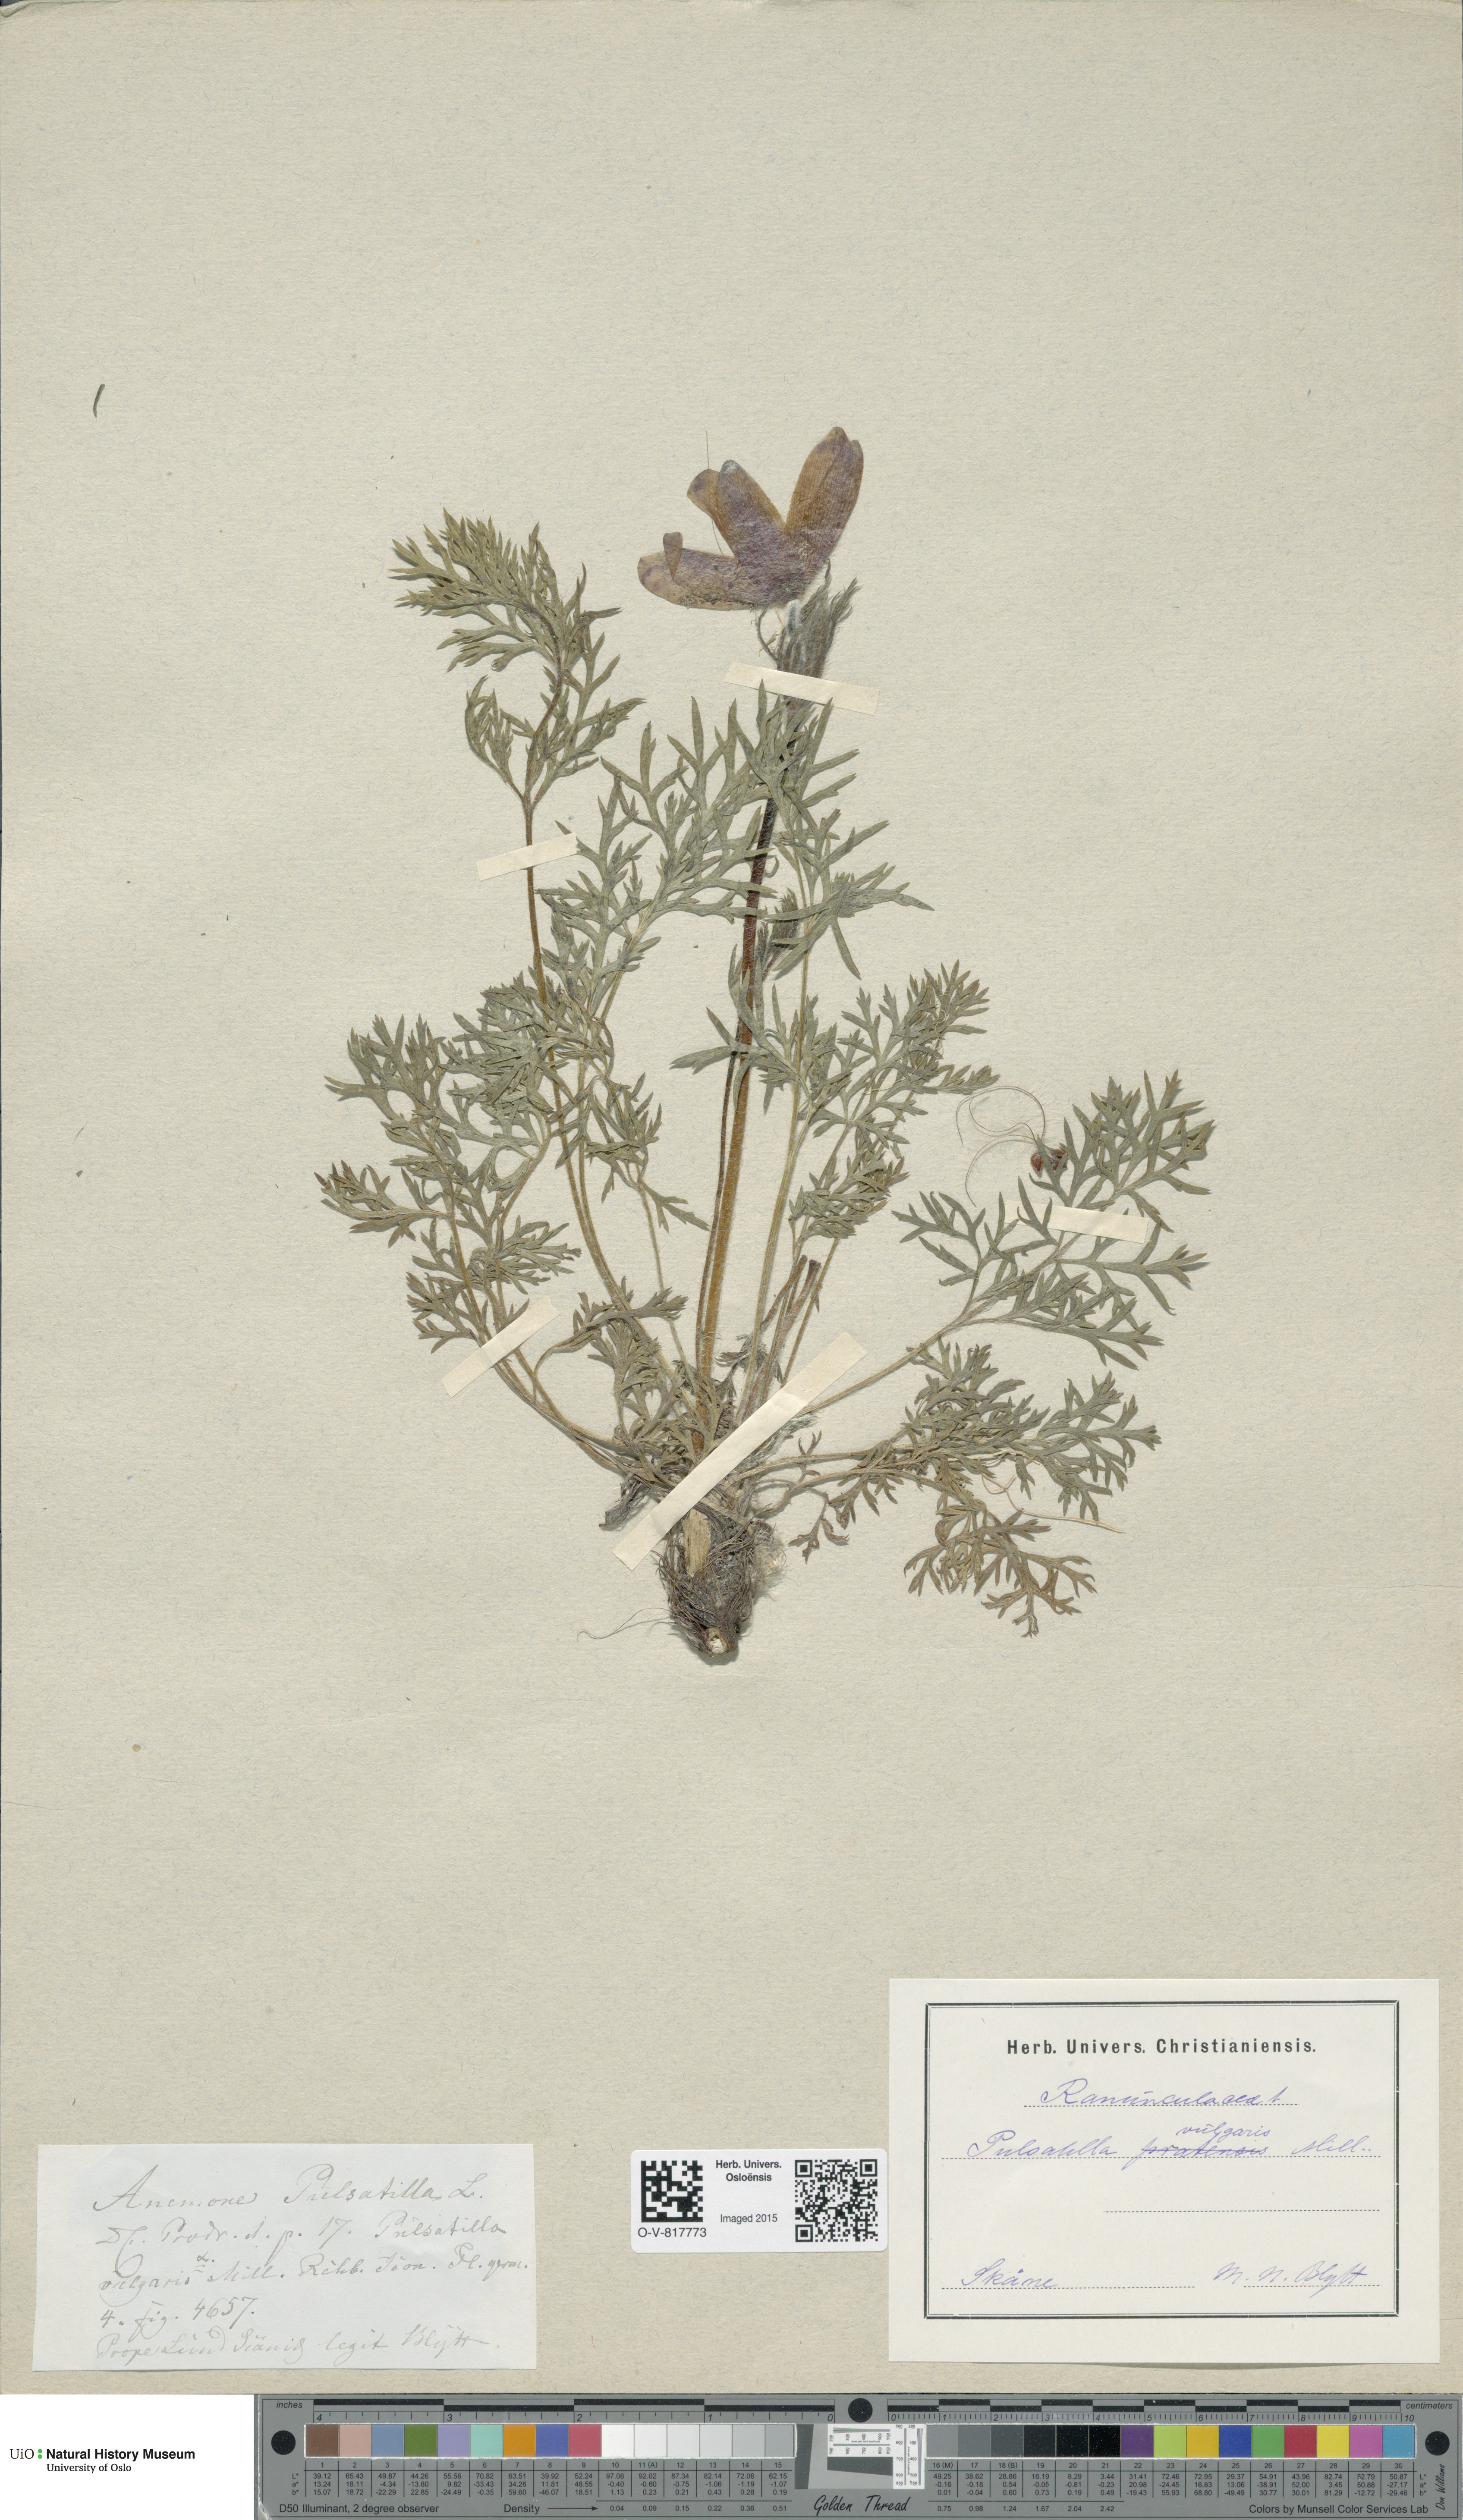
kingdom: Plantae
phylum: Tracheophyta
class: Magnoliopsida
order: Ranunculales
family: Ranunculaceae
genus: Pulsatilla
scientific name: Pulsatilla vulgaris
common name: Pasqueflower
